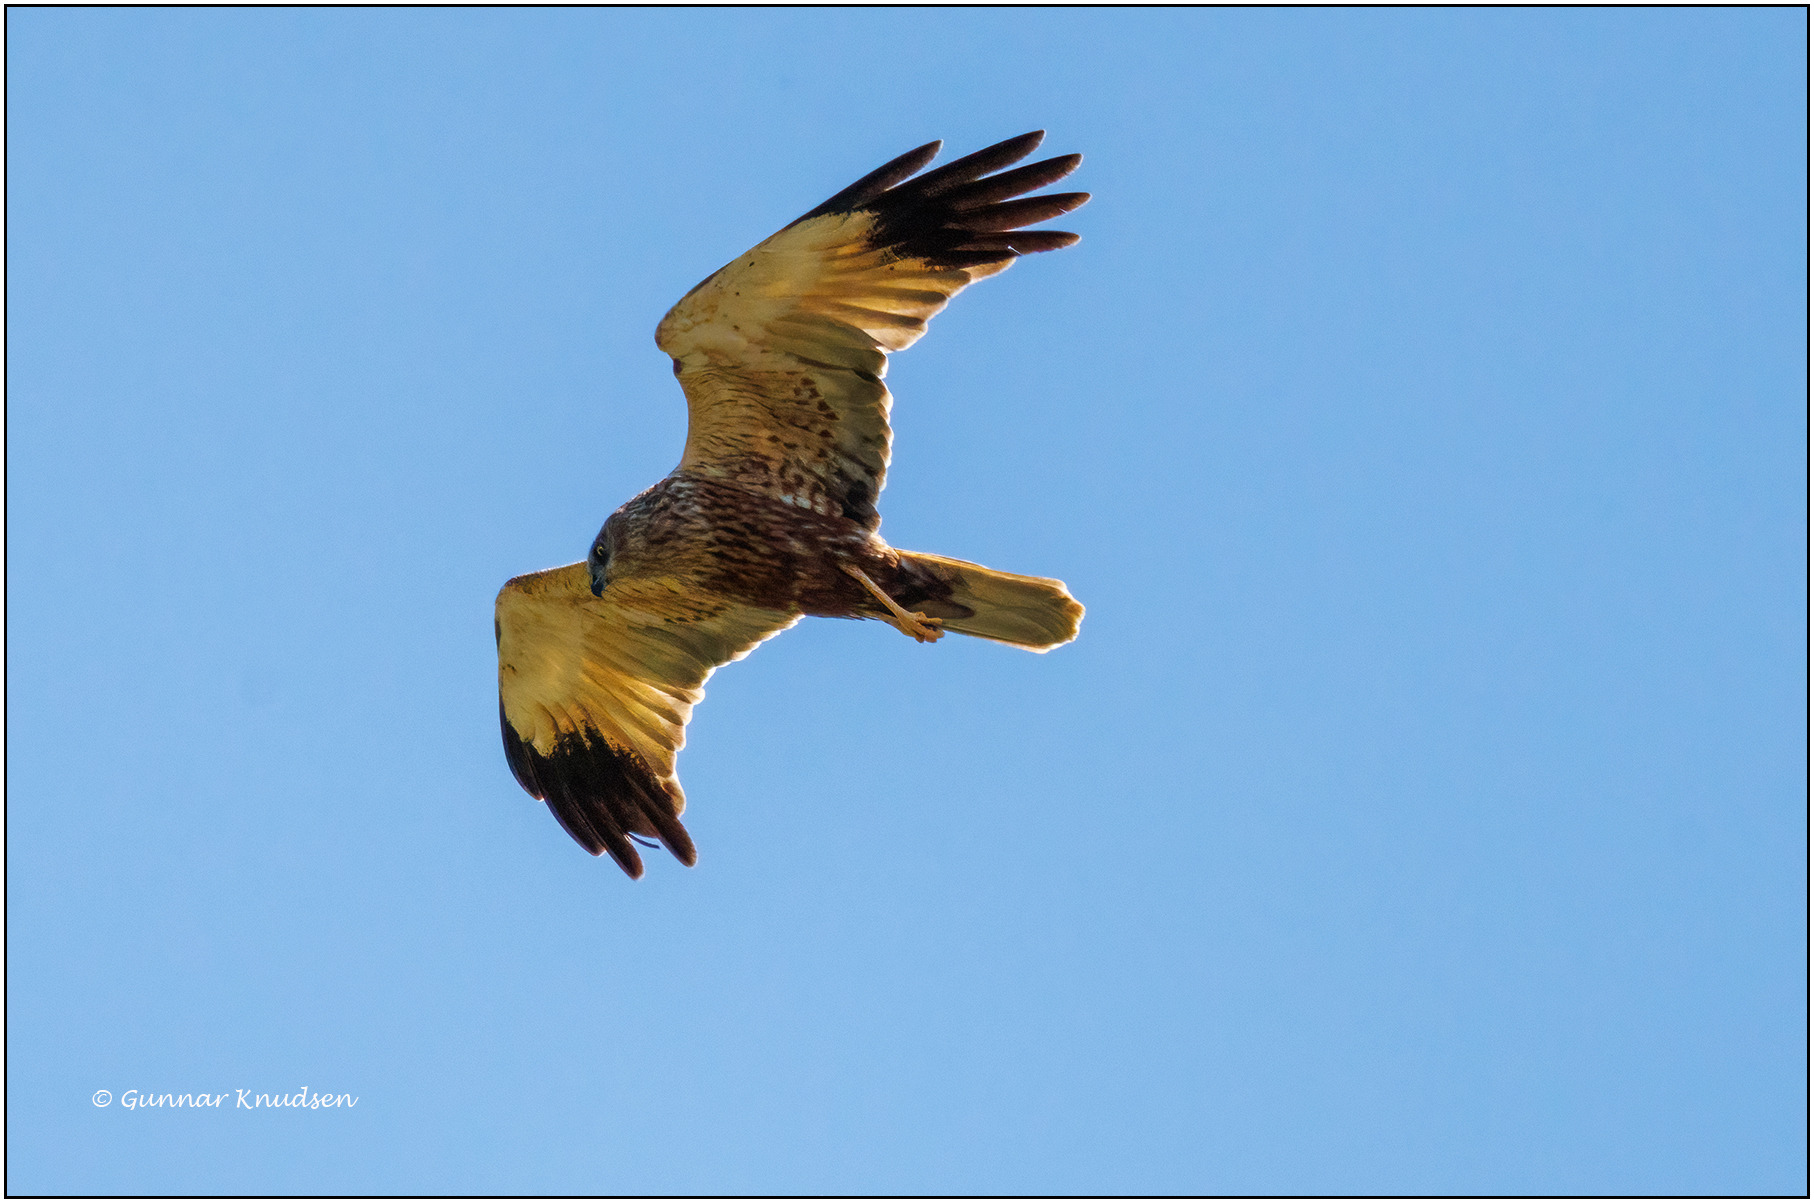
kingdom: Animalia
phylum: Chordata
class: Aves
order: Accipitriformes
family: Accipitridae
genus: Circus
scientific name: Circus aeruginosus
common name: Rørhøg
